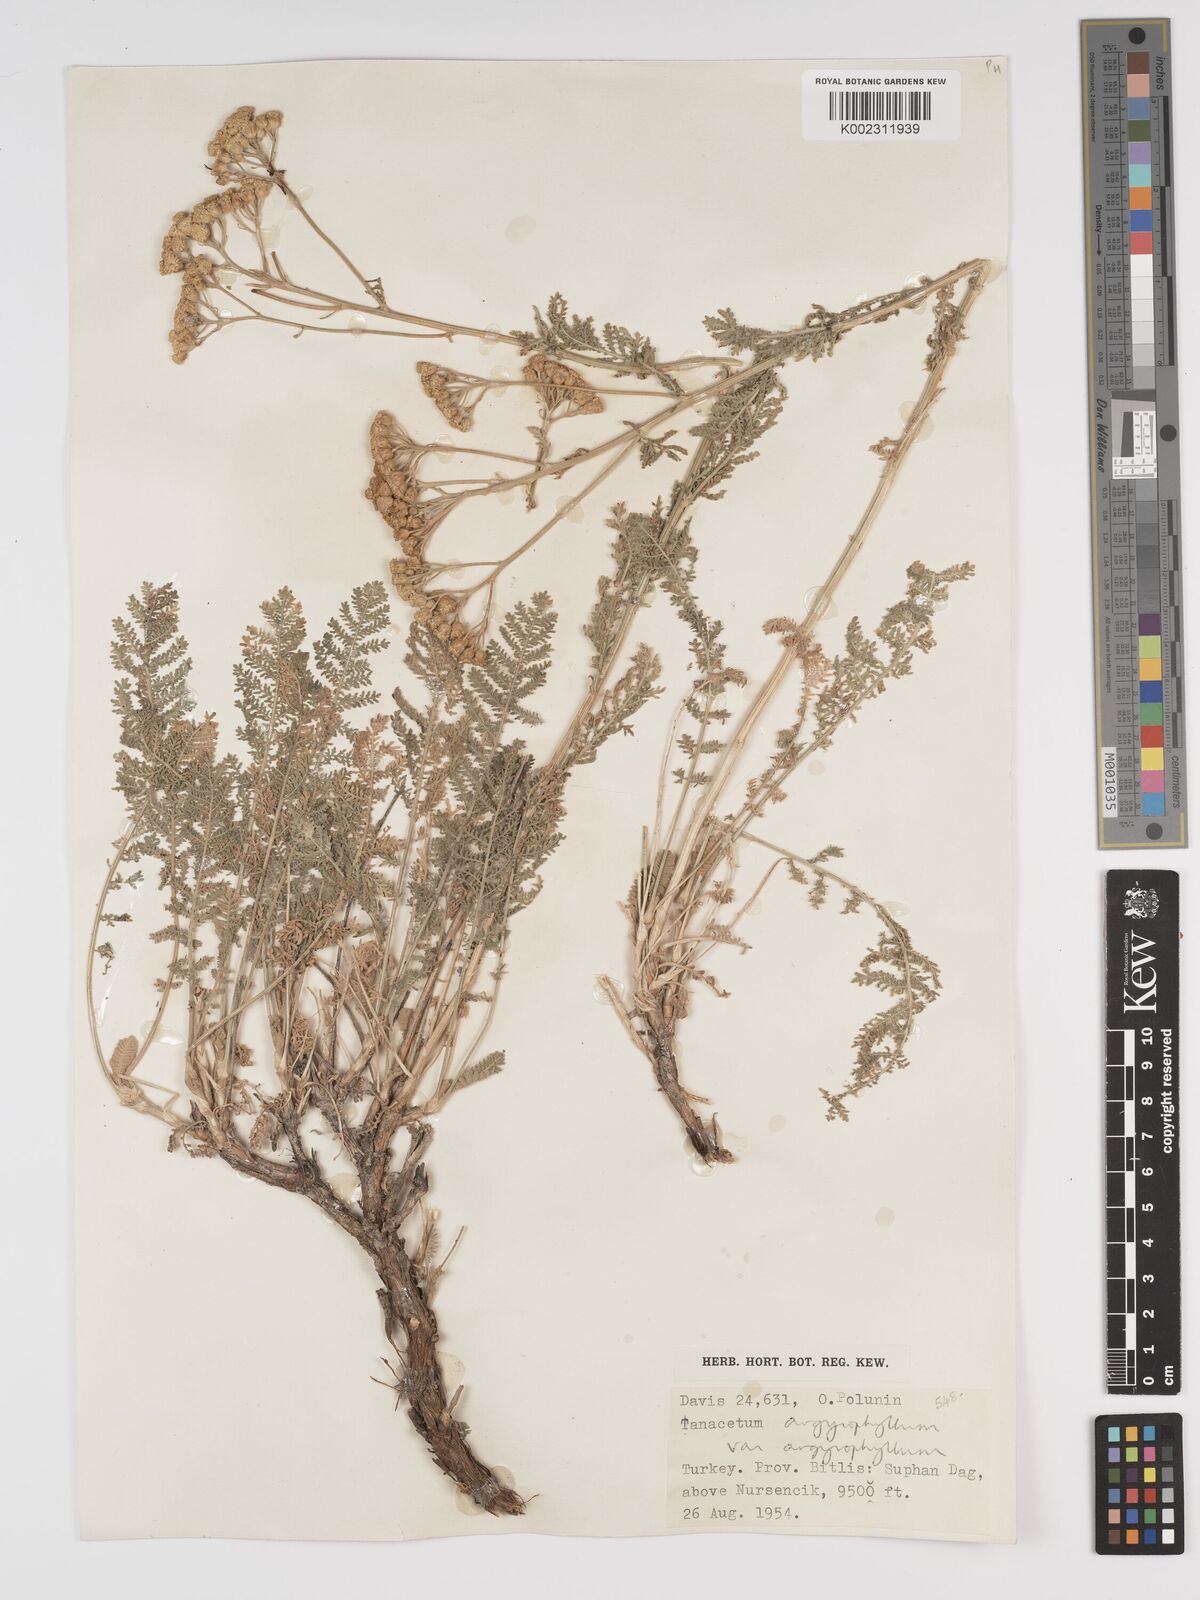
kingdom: Plantae
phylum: Tracheophyta
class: Magnoliopsida
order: Asterales
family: Asteraceae
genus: Tanacetum
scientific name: Tanacetum polycephalum
